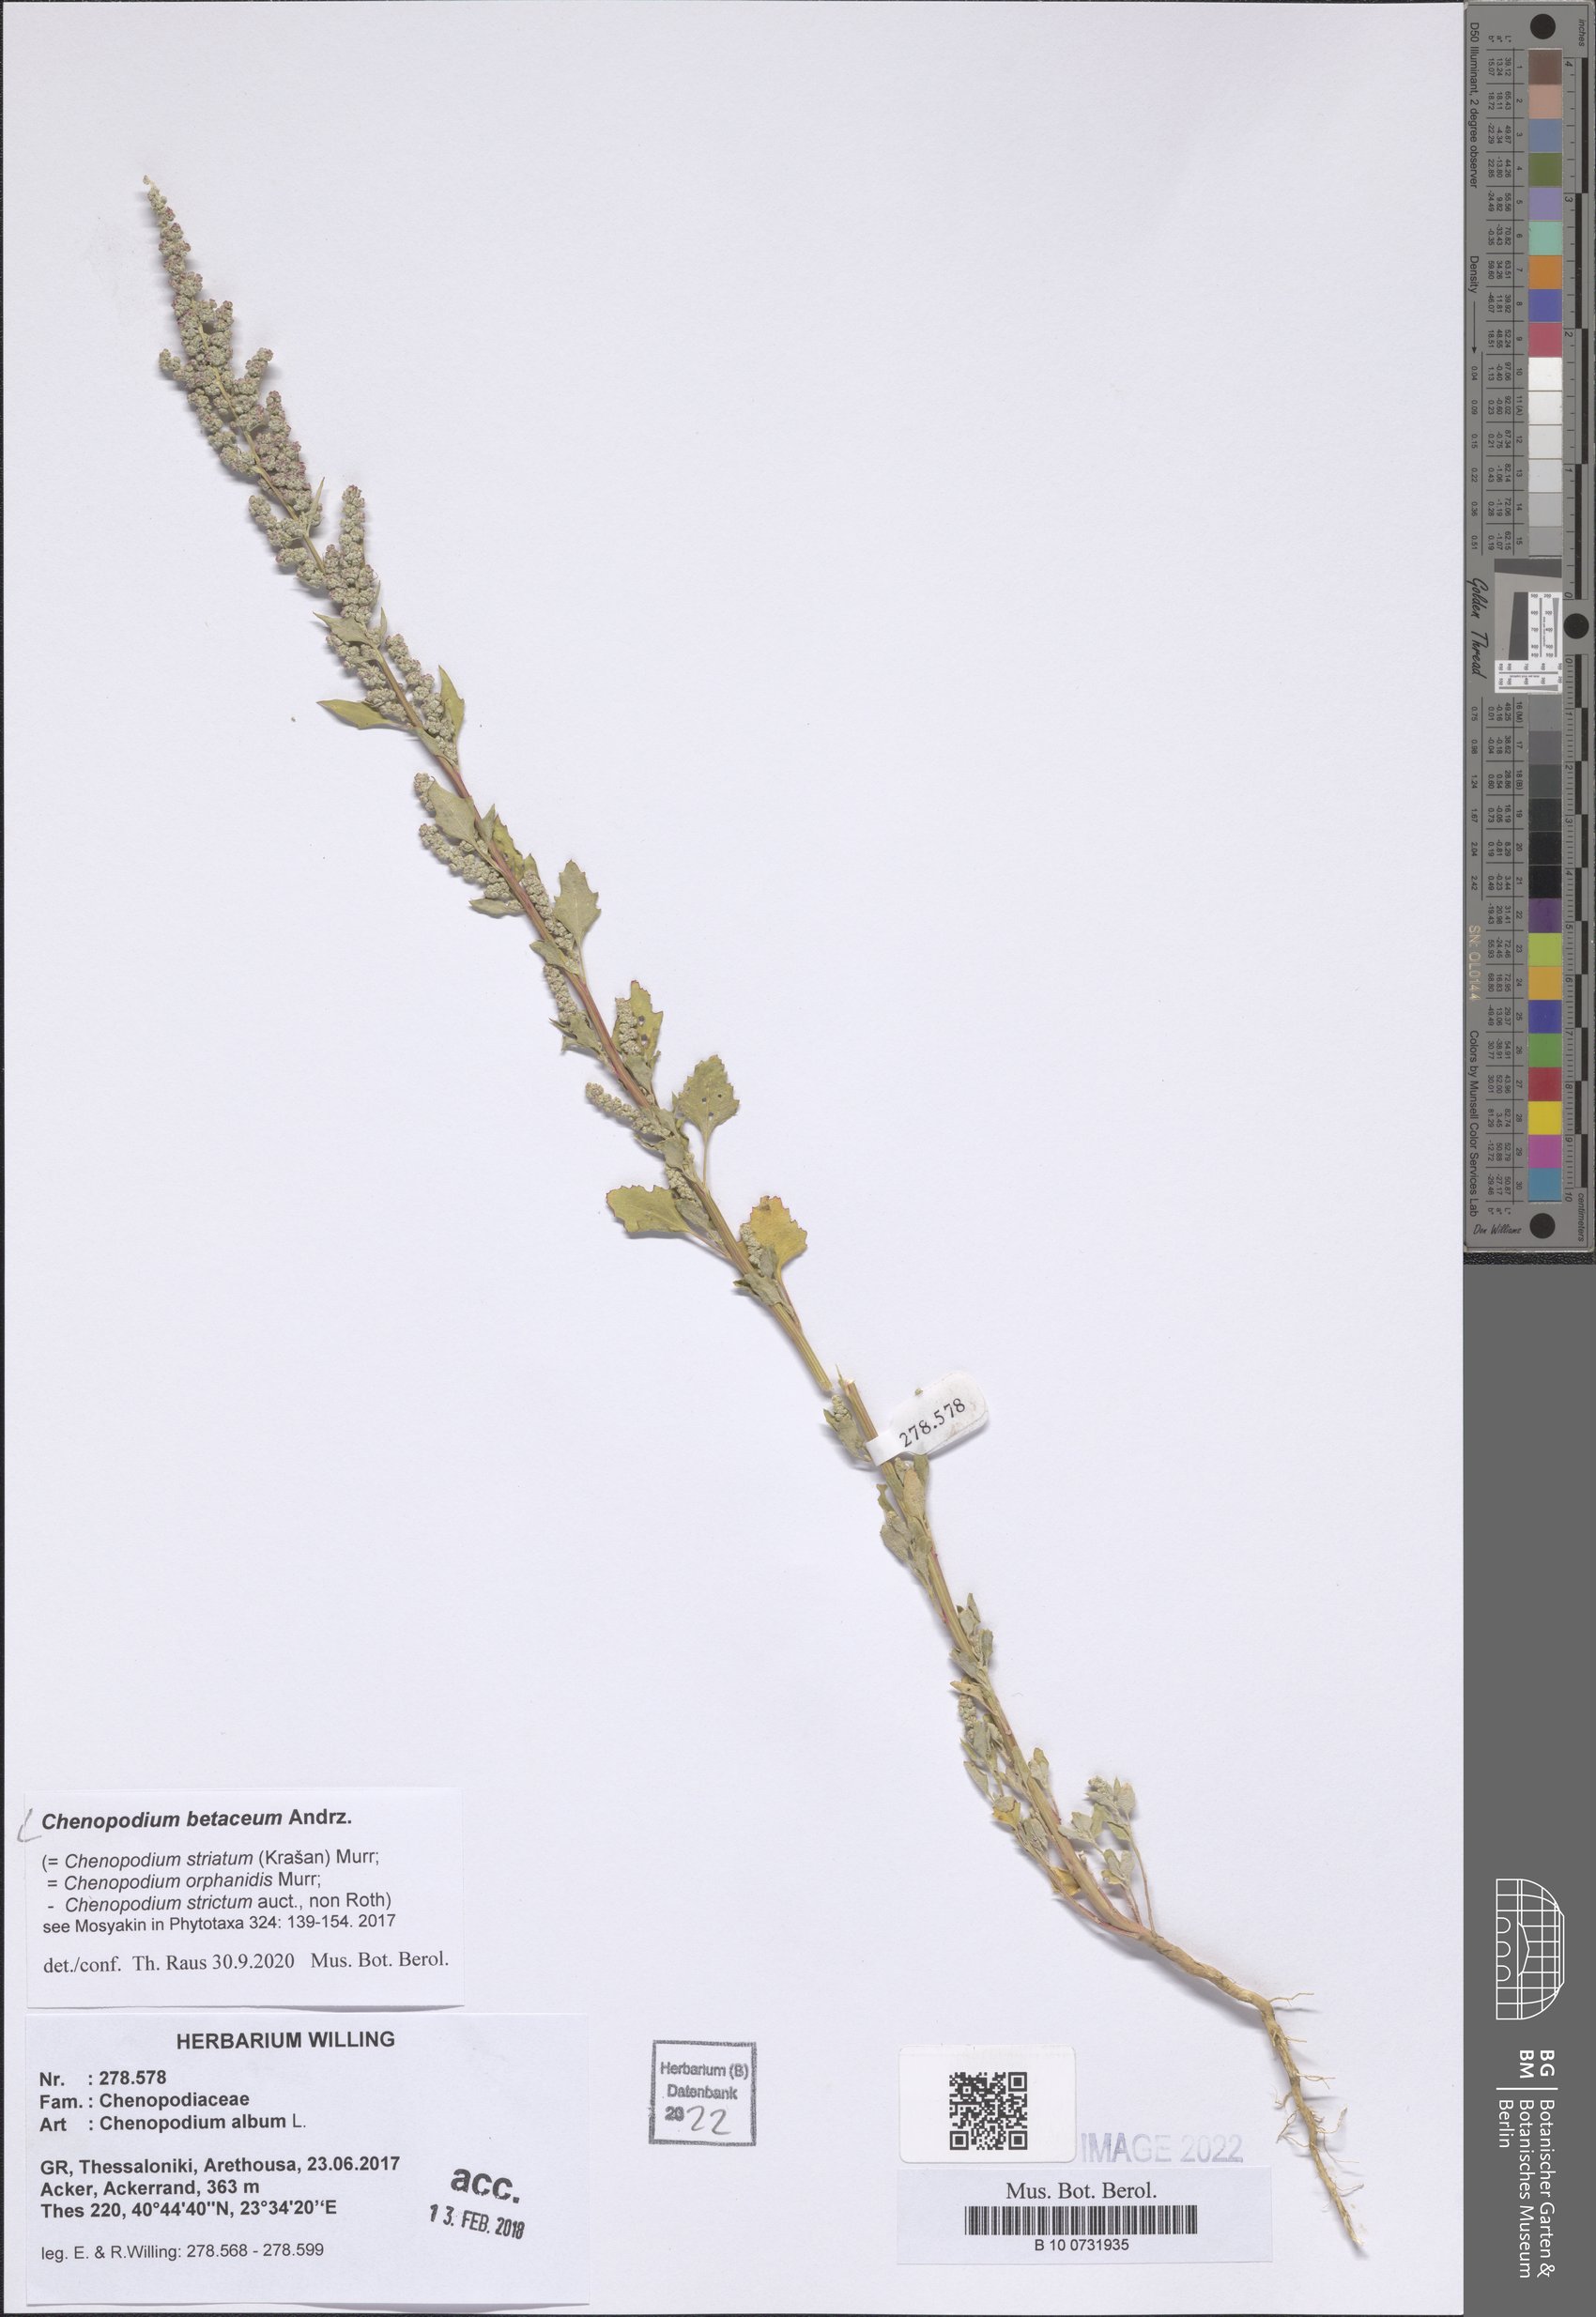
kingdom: Plantae
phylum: Tracheophyta
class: Magnoliopsida
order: Caryophyllales
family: Amaranthaceae
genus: Chenopodium
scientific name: Chenopodium betaceum
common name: Striped goosefoot
